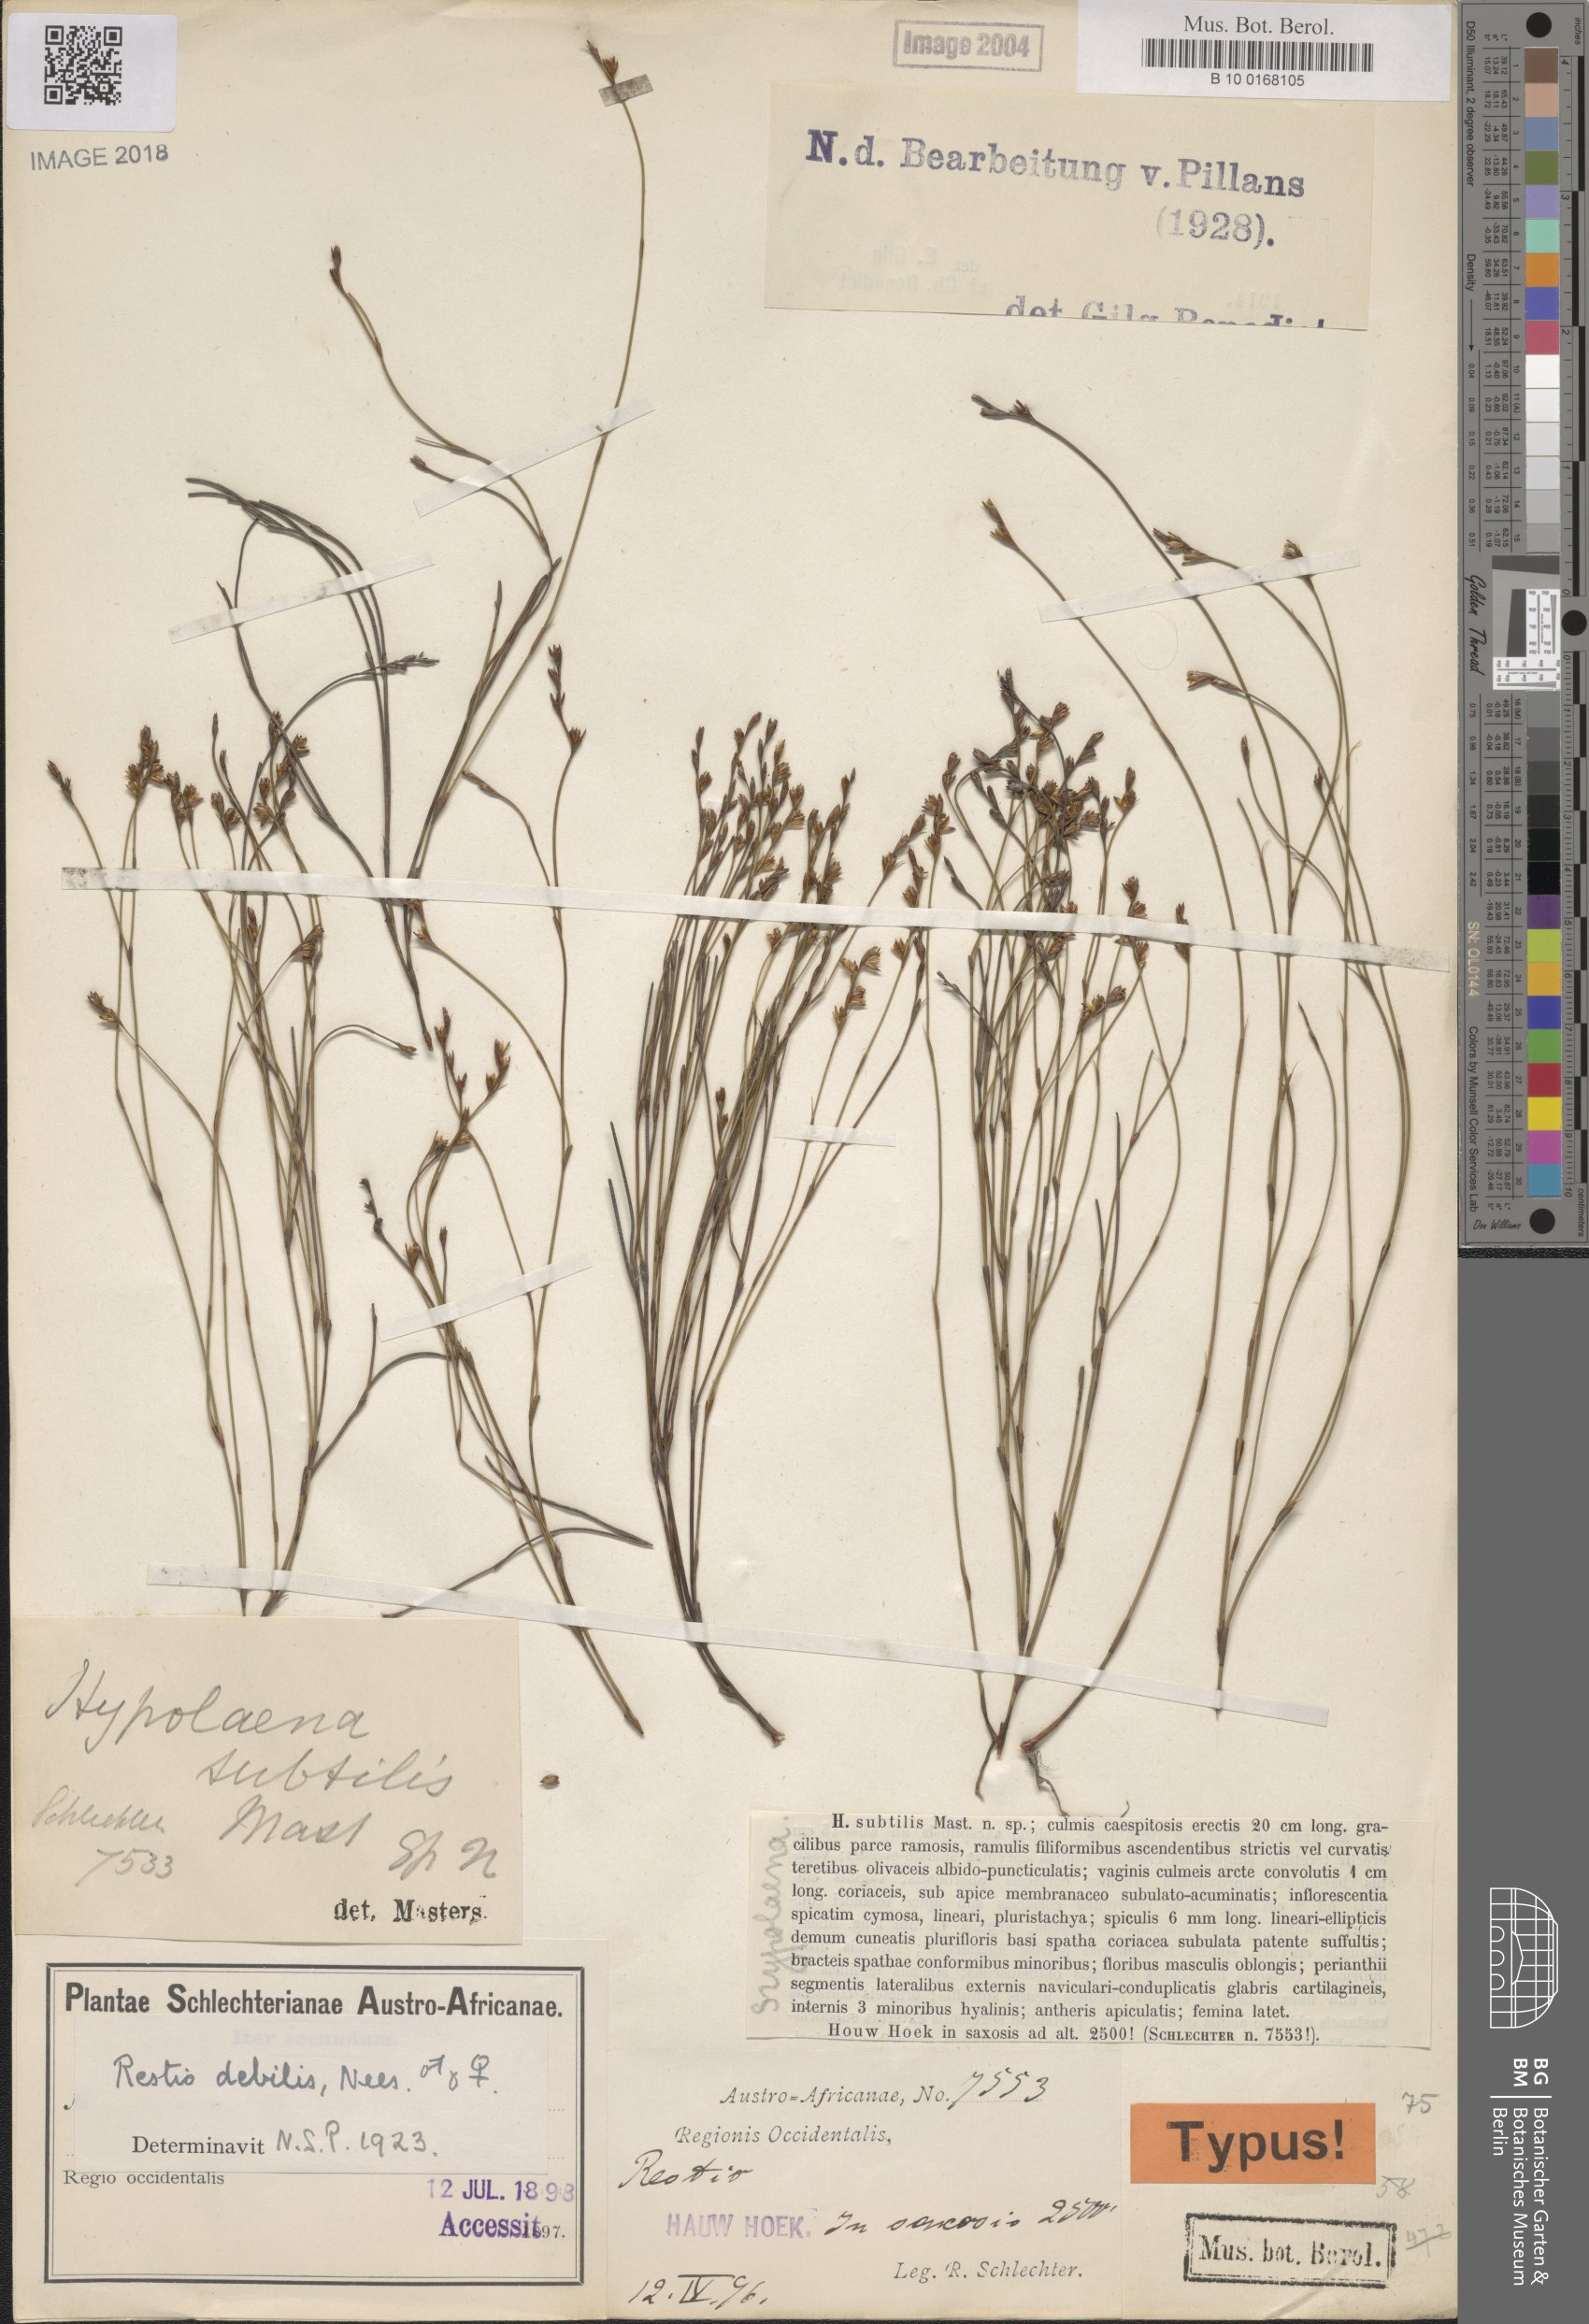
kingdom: Plantae
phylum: Tracheophyta
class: Liliopsida
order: Poales
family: Restionaceae
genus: Restio
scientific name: Restio debilis
